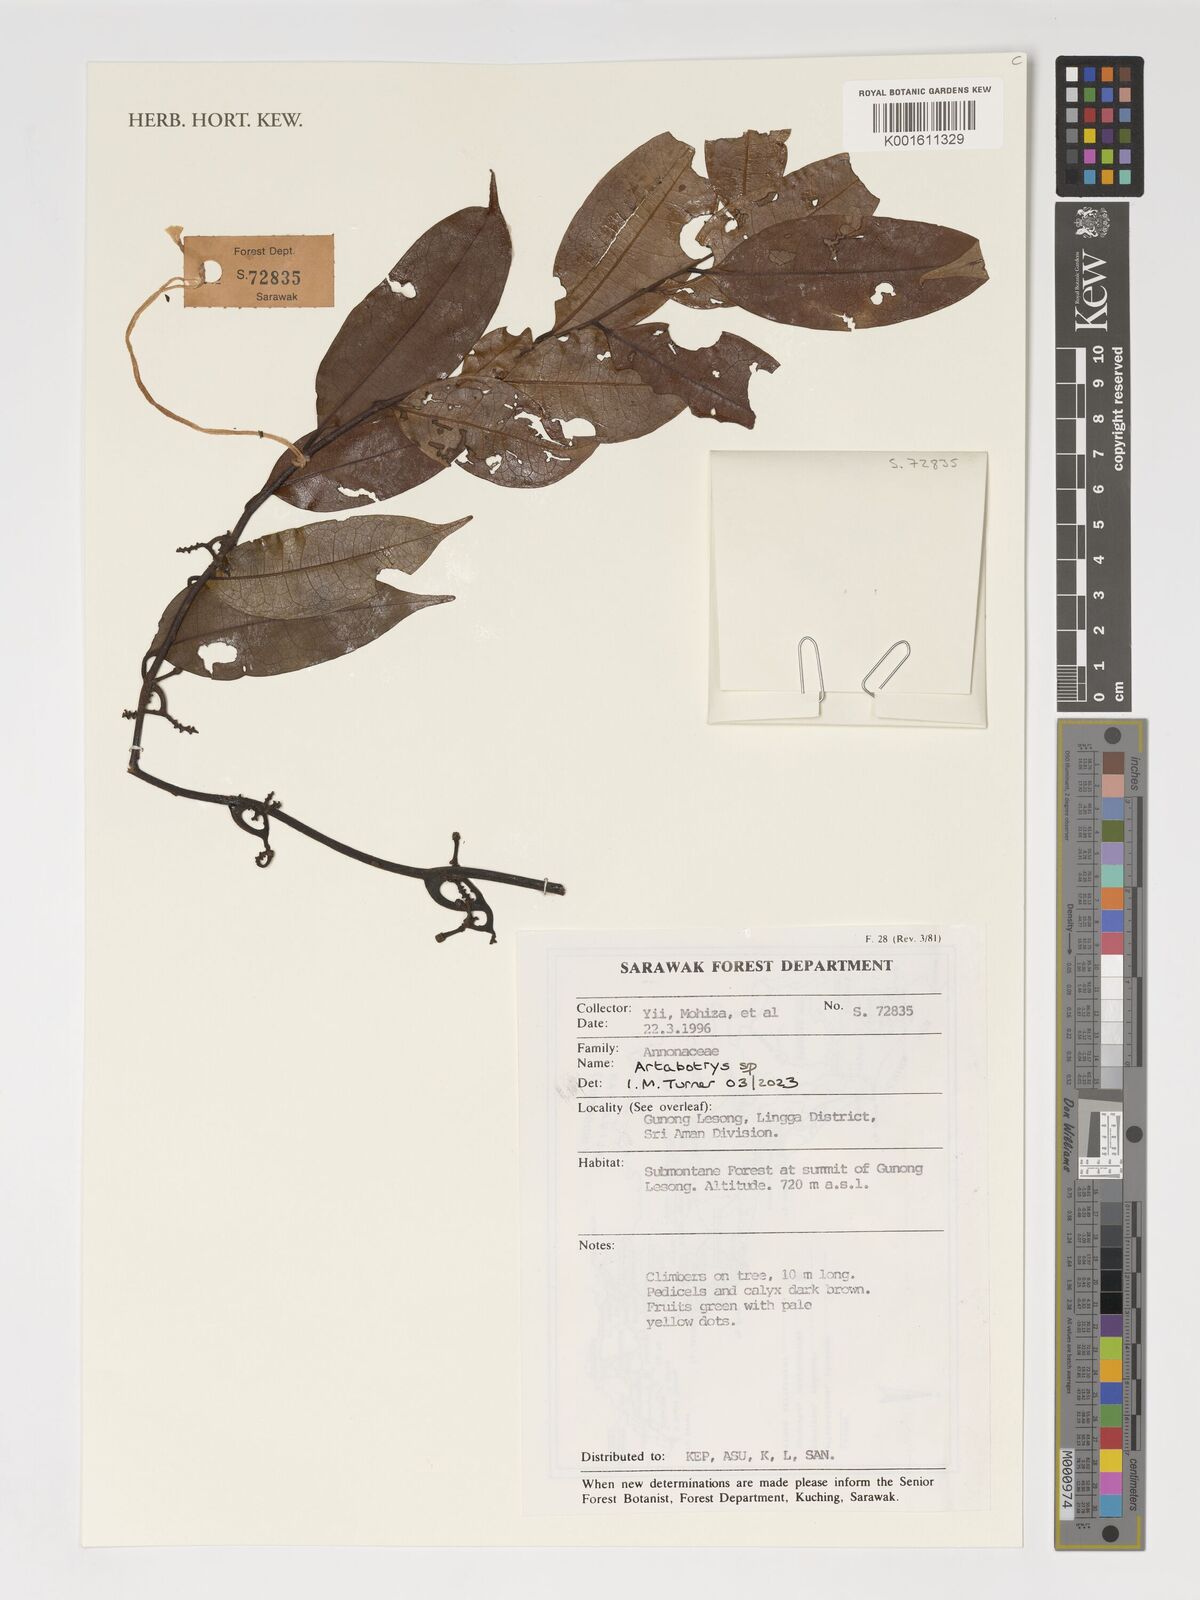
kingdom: Plantae
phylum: Tracheophyta
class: Magnoliopsida
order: Magnoliales
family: Annonaceae
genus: Artabotrys
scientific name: Artabotrys
